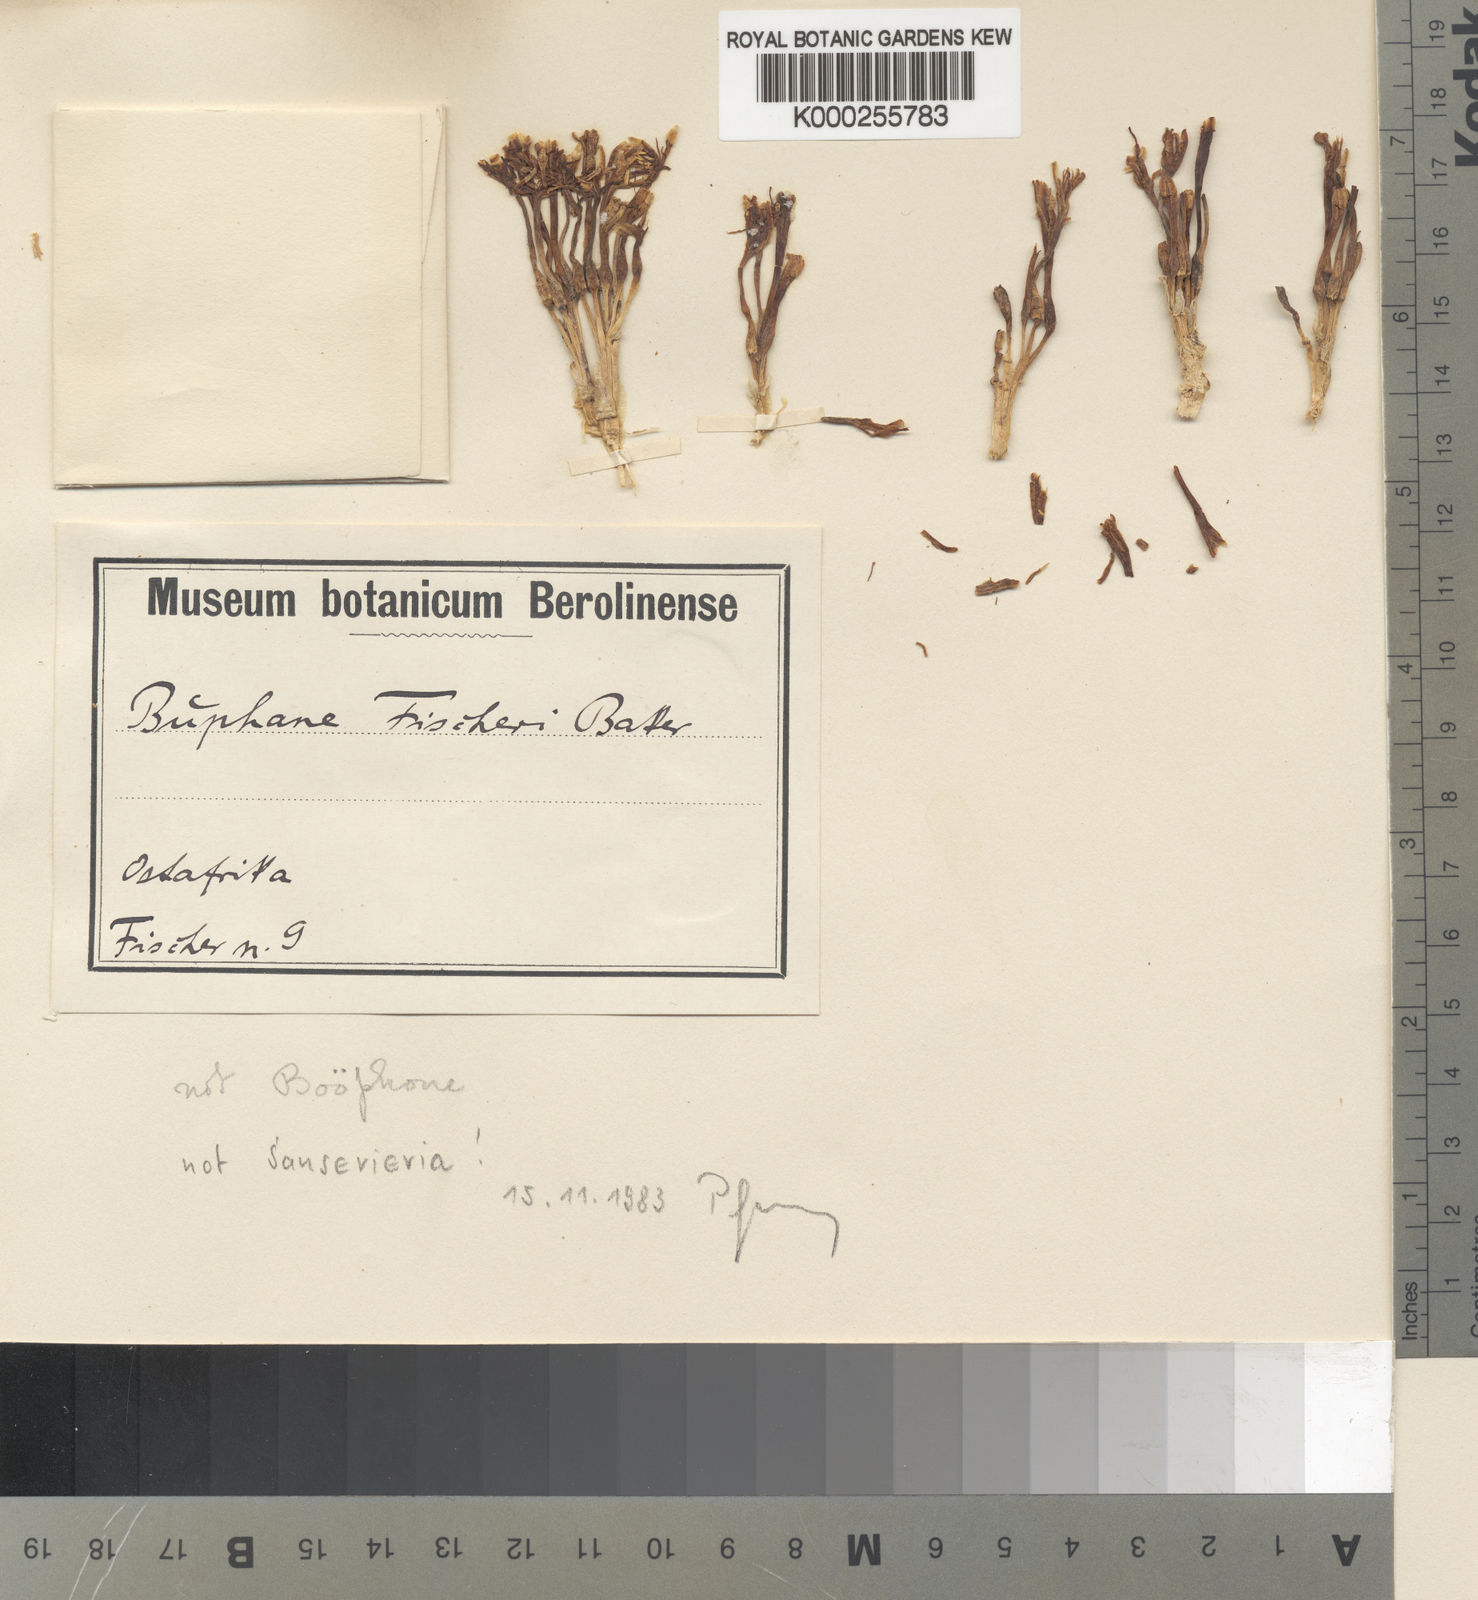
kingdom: Plantae
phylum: Tracheophyta
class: Liliopsida
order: Asparagales
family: Asparagaceae
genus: Dracaena
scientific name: Dracaena singularis
